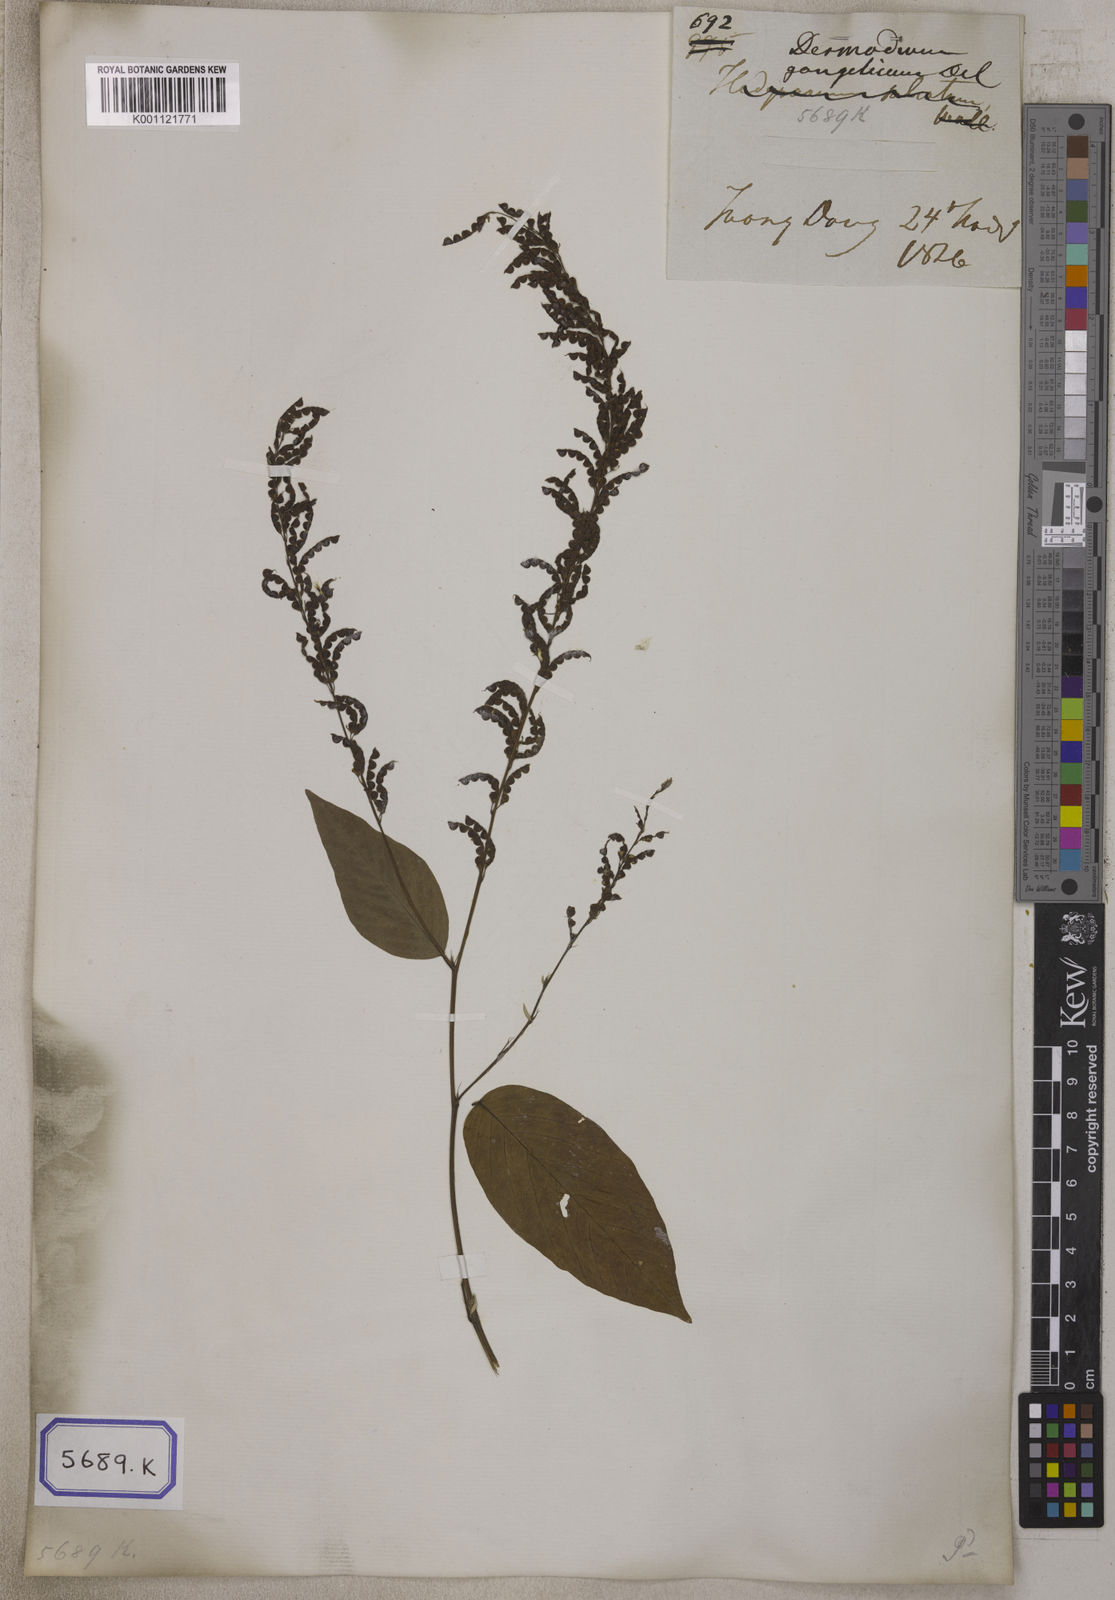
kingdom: Plantae
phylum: Tracheophyta
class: Magnoliopsida
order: Fabales
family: Fabaceae
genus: Pleurolobus
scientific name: Pleurolobus gangeticus
